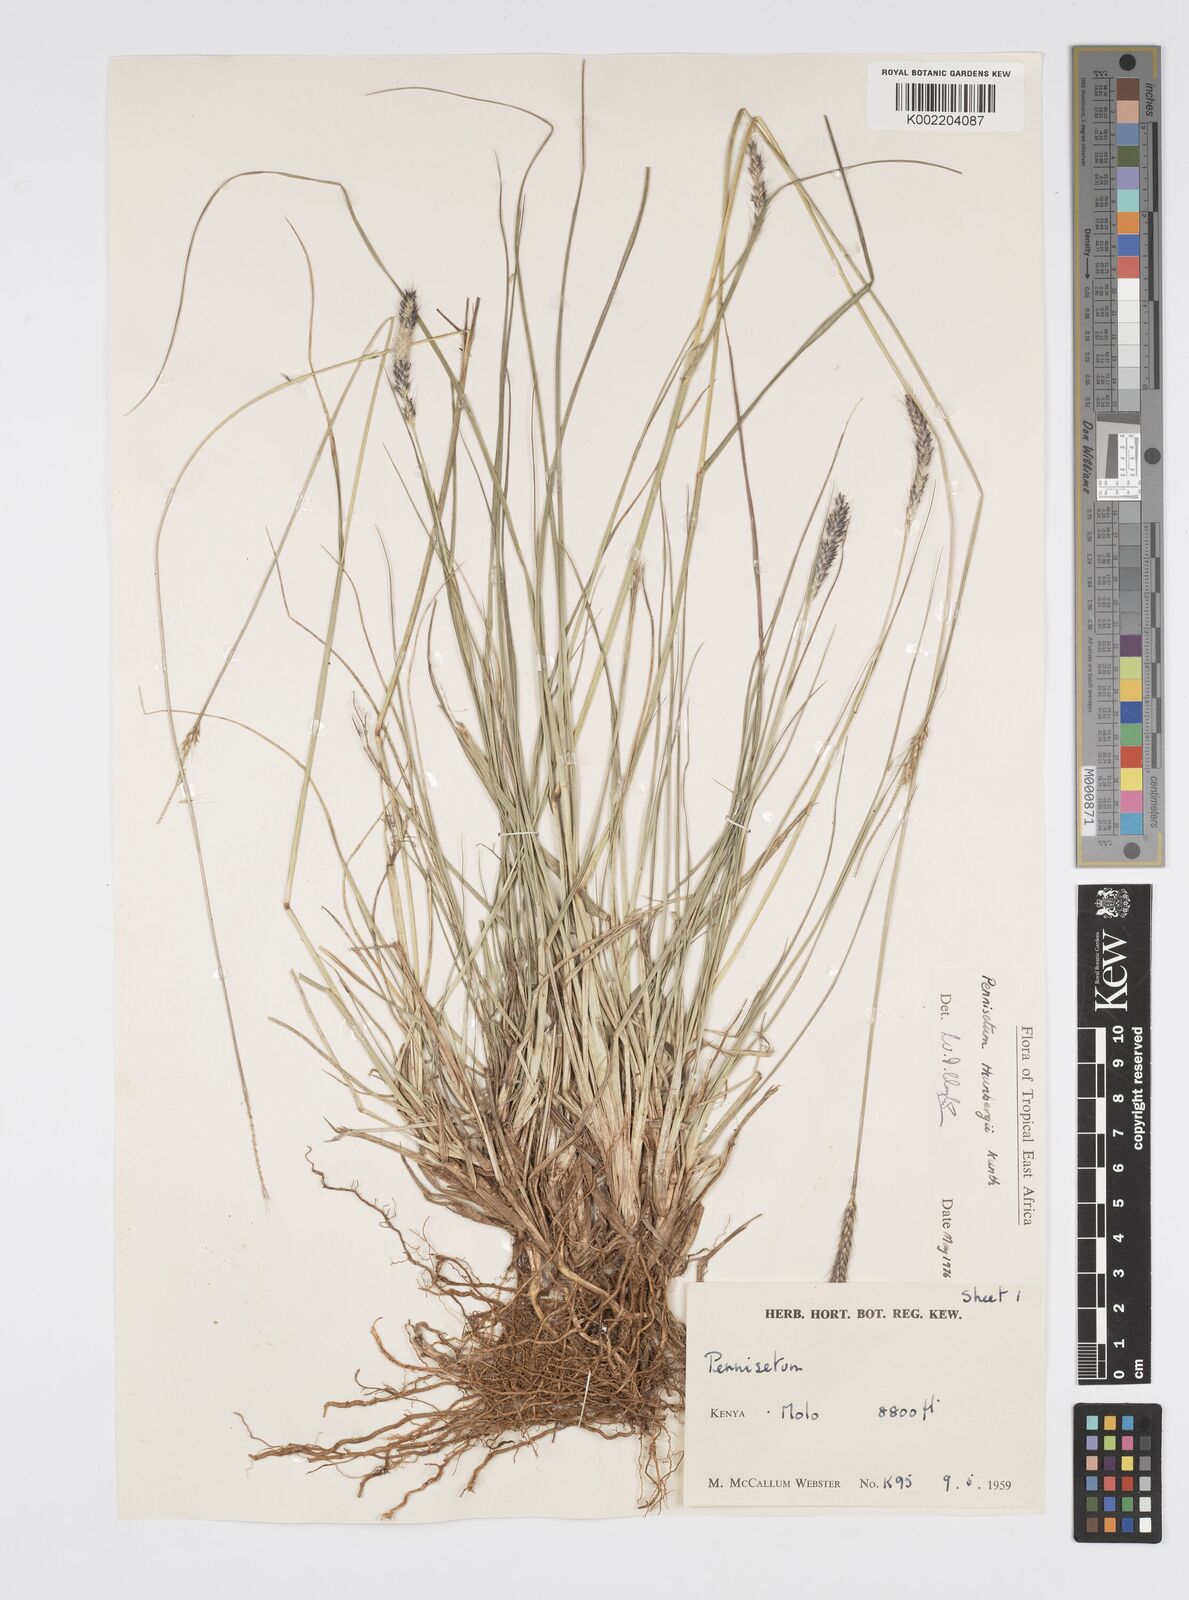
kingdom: Plantae
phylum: Tracheophyta
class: Liliopsida
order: Poales
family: Poaceae
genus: Cenchrus
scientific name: Cenchrus geniculatus
